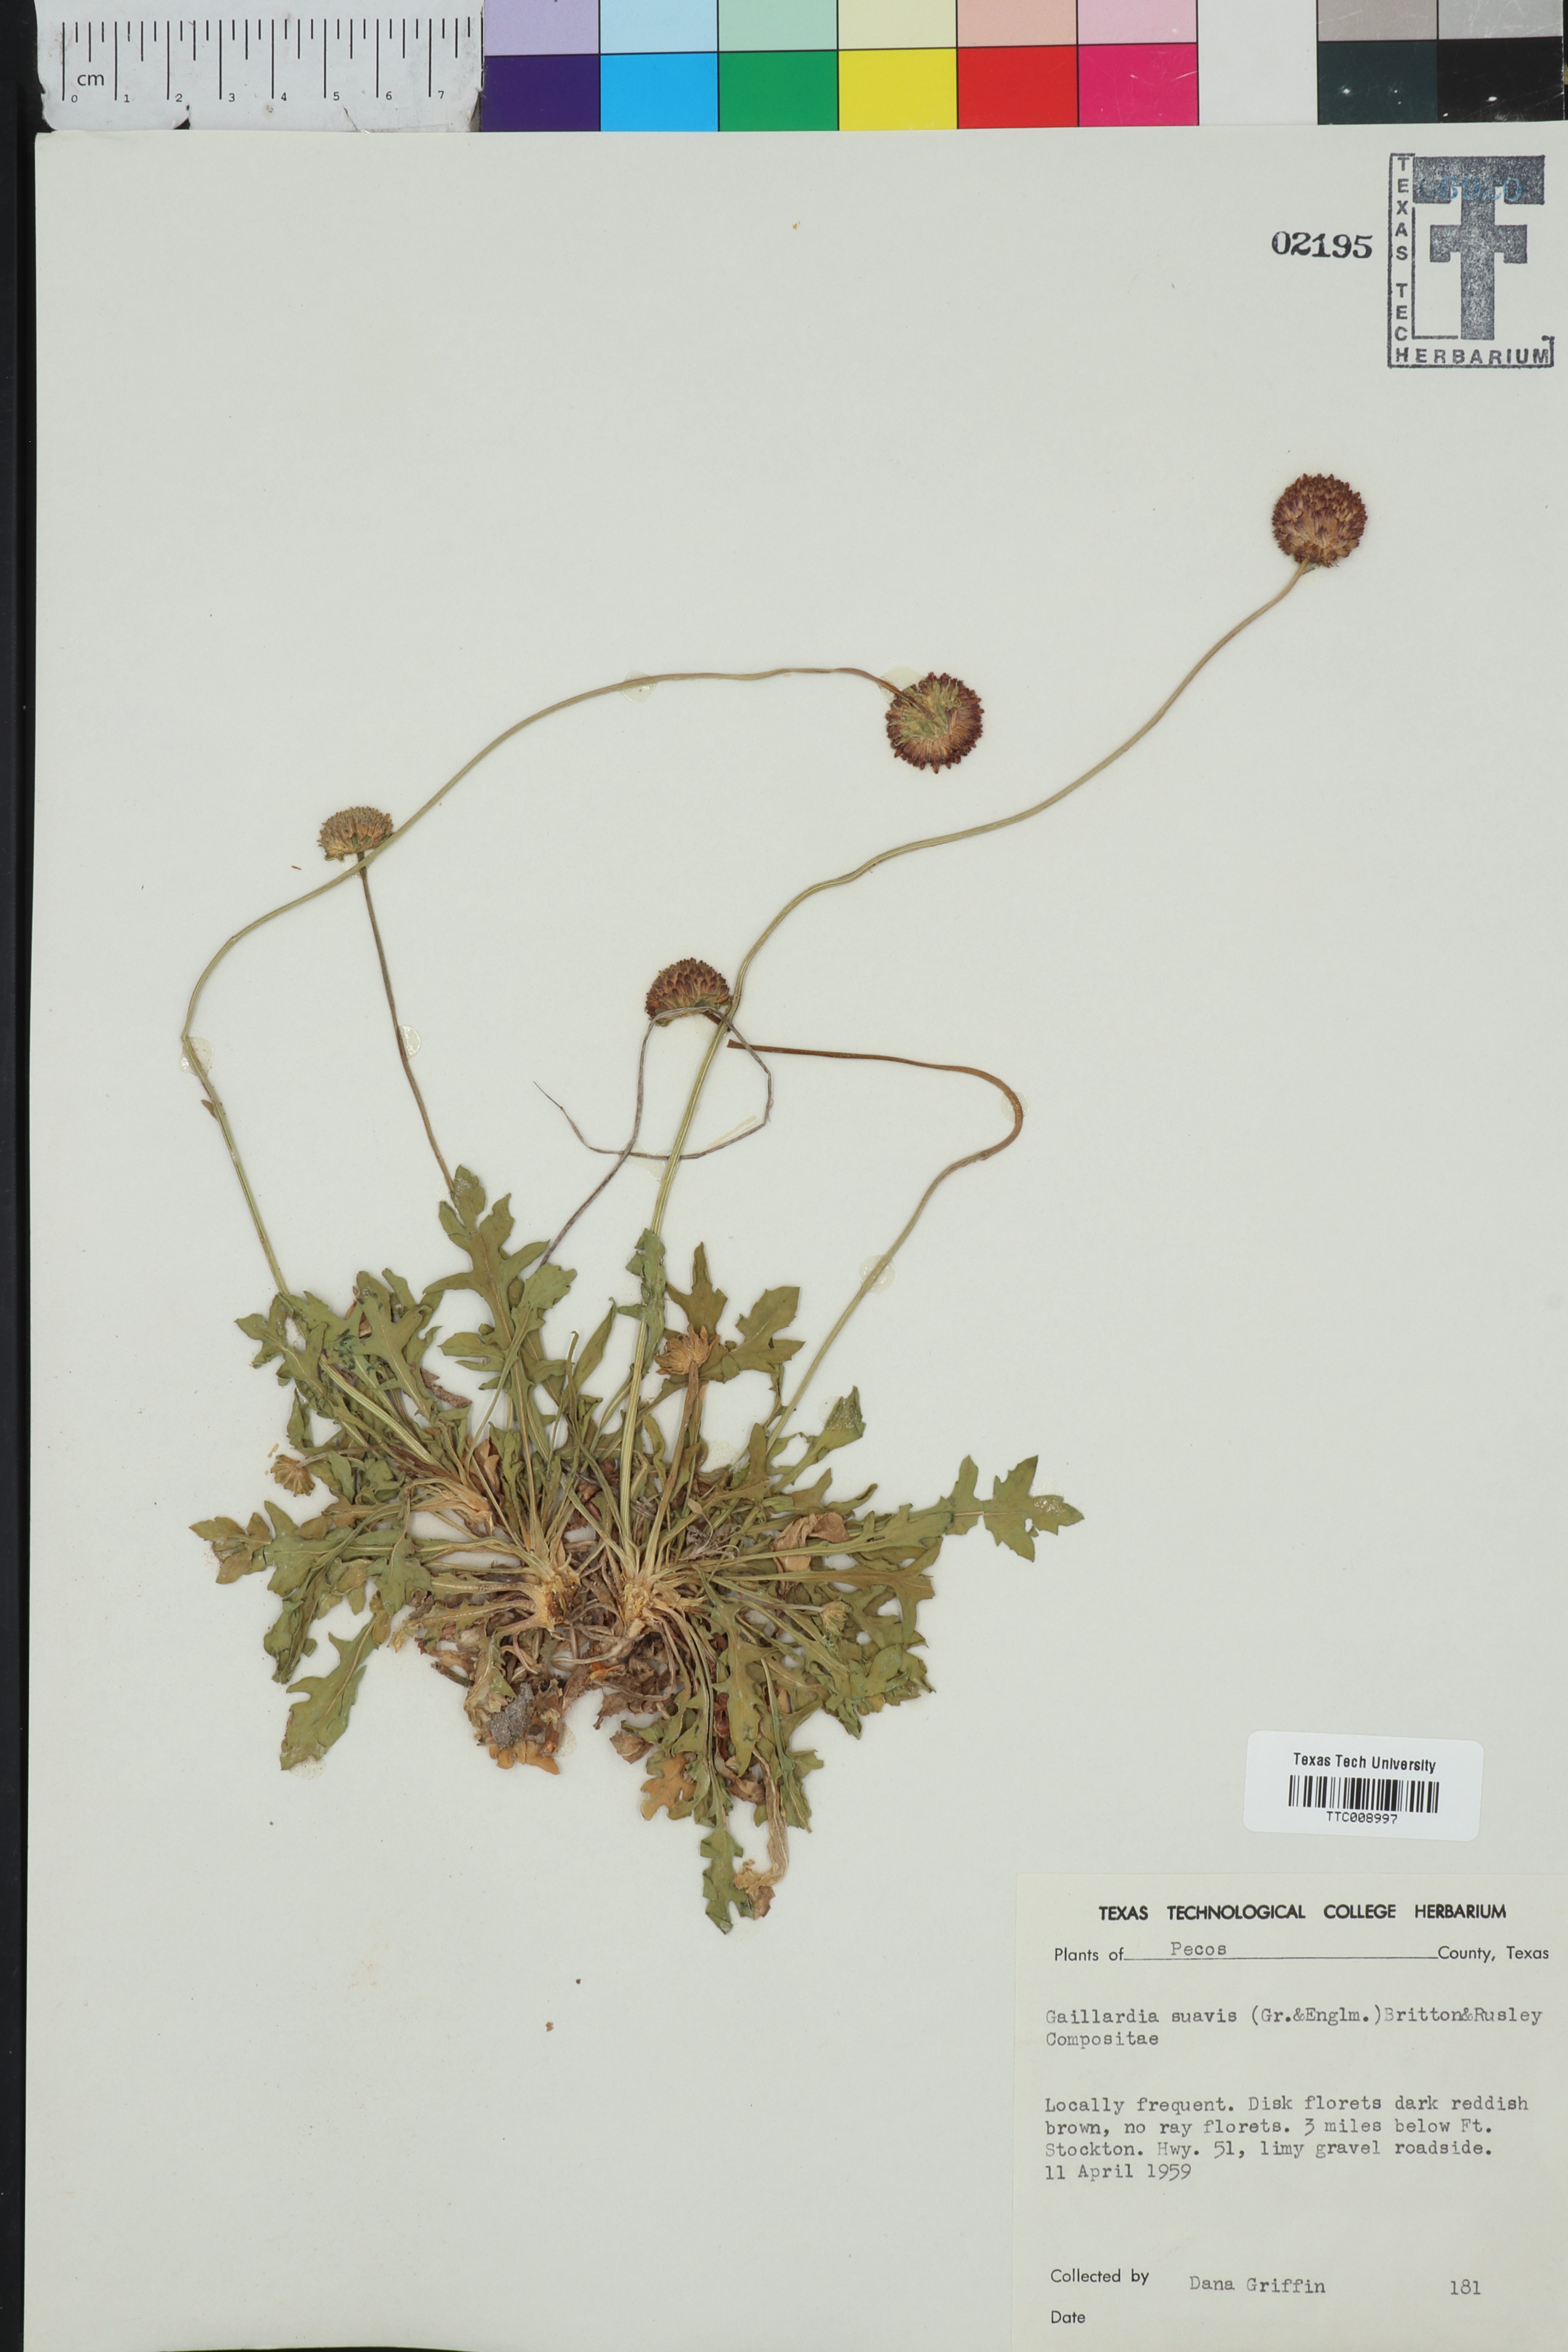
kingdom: Plantae
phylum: Tracheophyta
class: Magnoliopsida
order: Asterales
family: Asteraceae
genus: Gaillardia
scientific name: Gaillardia suavis
